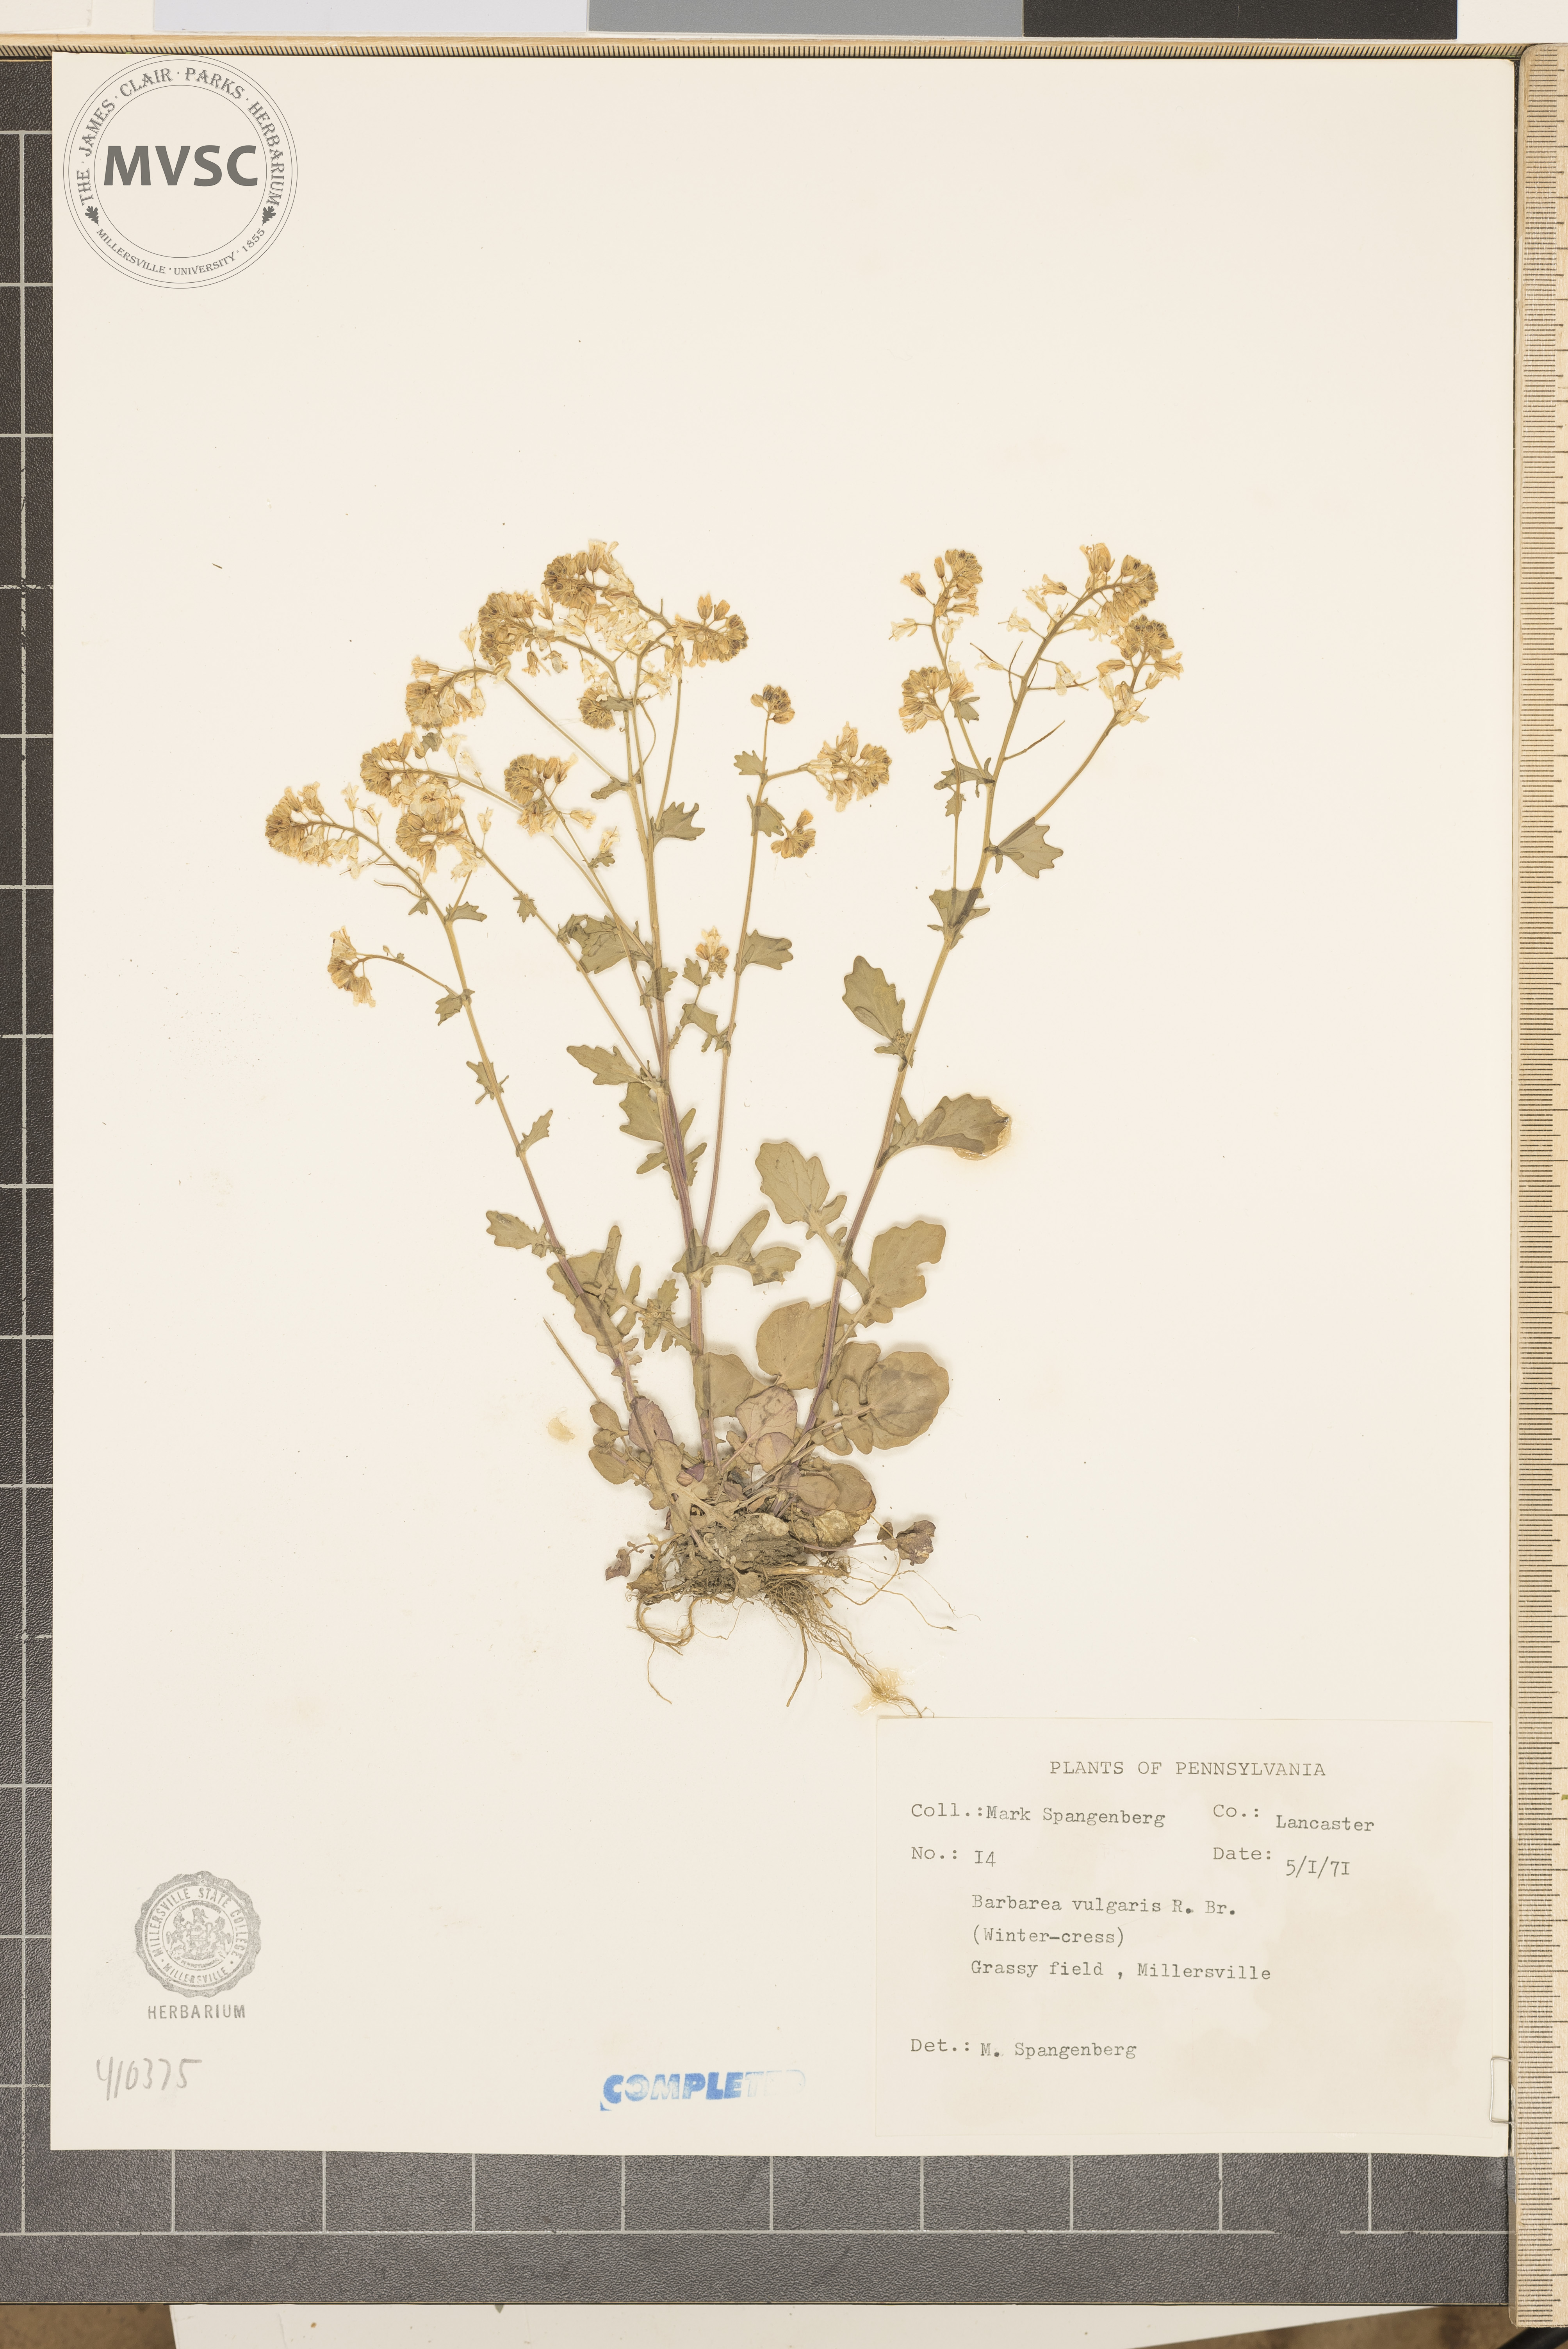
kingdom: Plantae
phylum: Tracheophyta
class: Magnoliopsida
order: Brassicales
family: Brassicaceae
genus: Barbarea
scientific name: Barbarea vulgaris
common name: Cressy-greens
